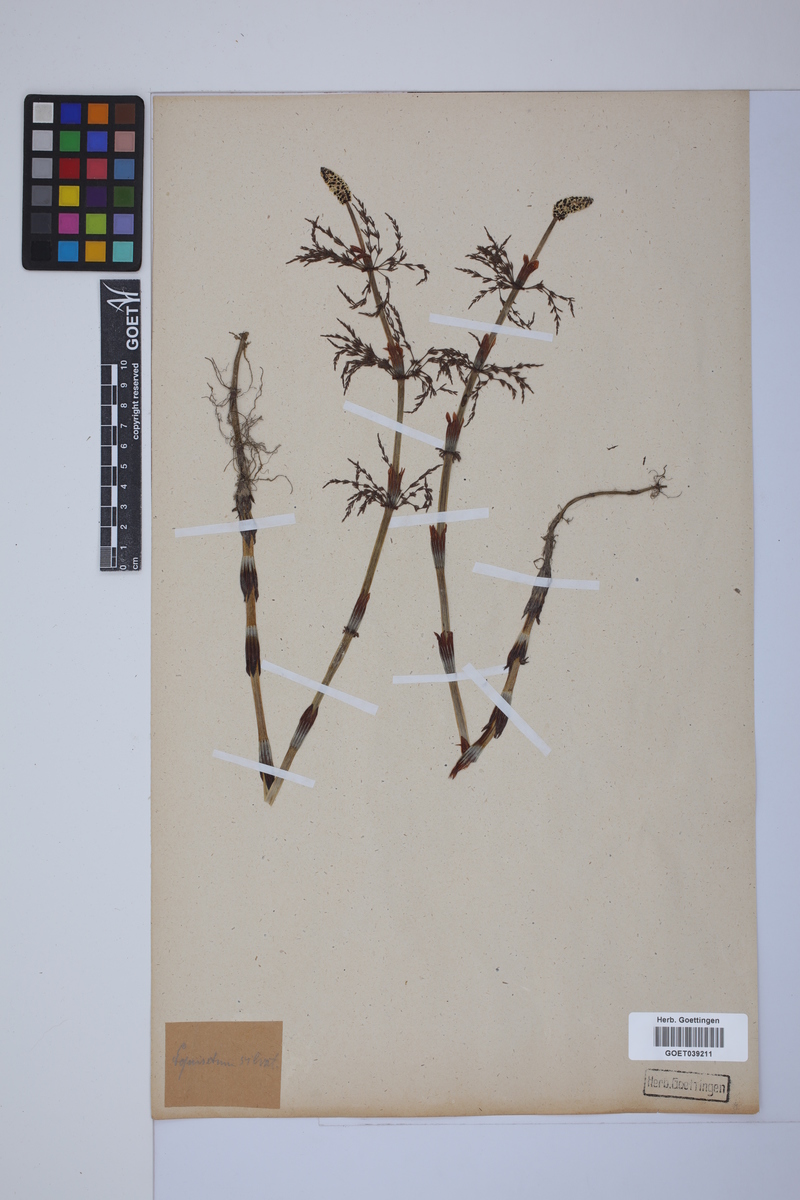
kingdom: Plantae
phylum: Tracheophyta
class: Polypodiopsida
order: Equisetales
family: Equisetaceae
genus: Equisetum
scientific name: Equisetum sylvaticum
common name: Wood horsetail
